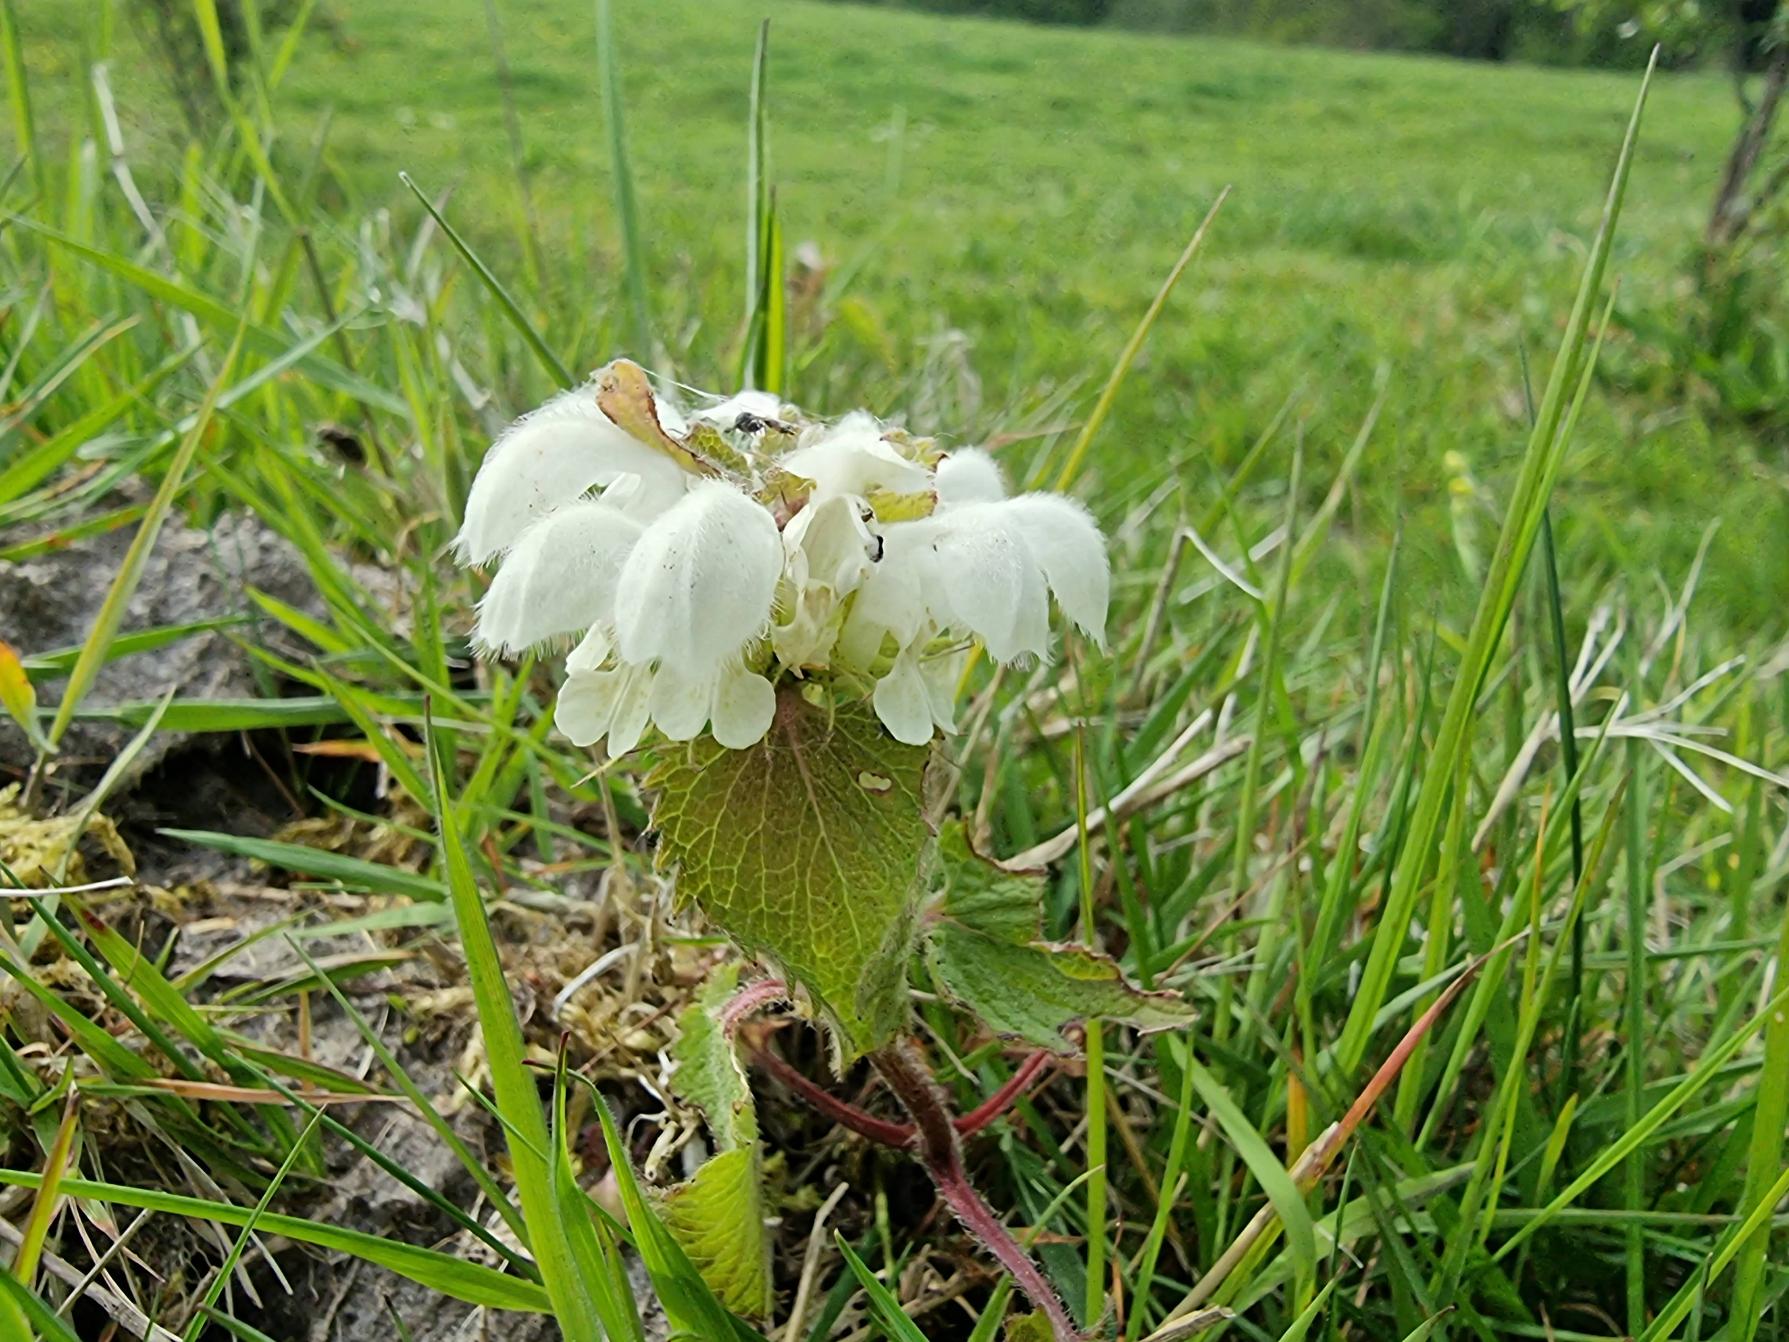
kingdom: Plantae
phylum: Tracheophyta
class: Magnoliopsida
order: Lamiales
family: Lamiaceae
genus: Lamium
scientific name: Lamium album
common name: Døvnælde
